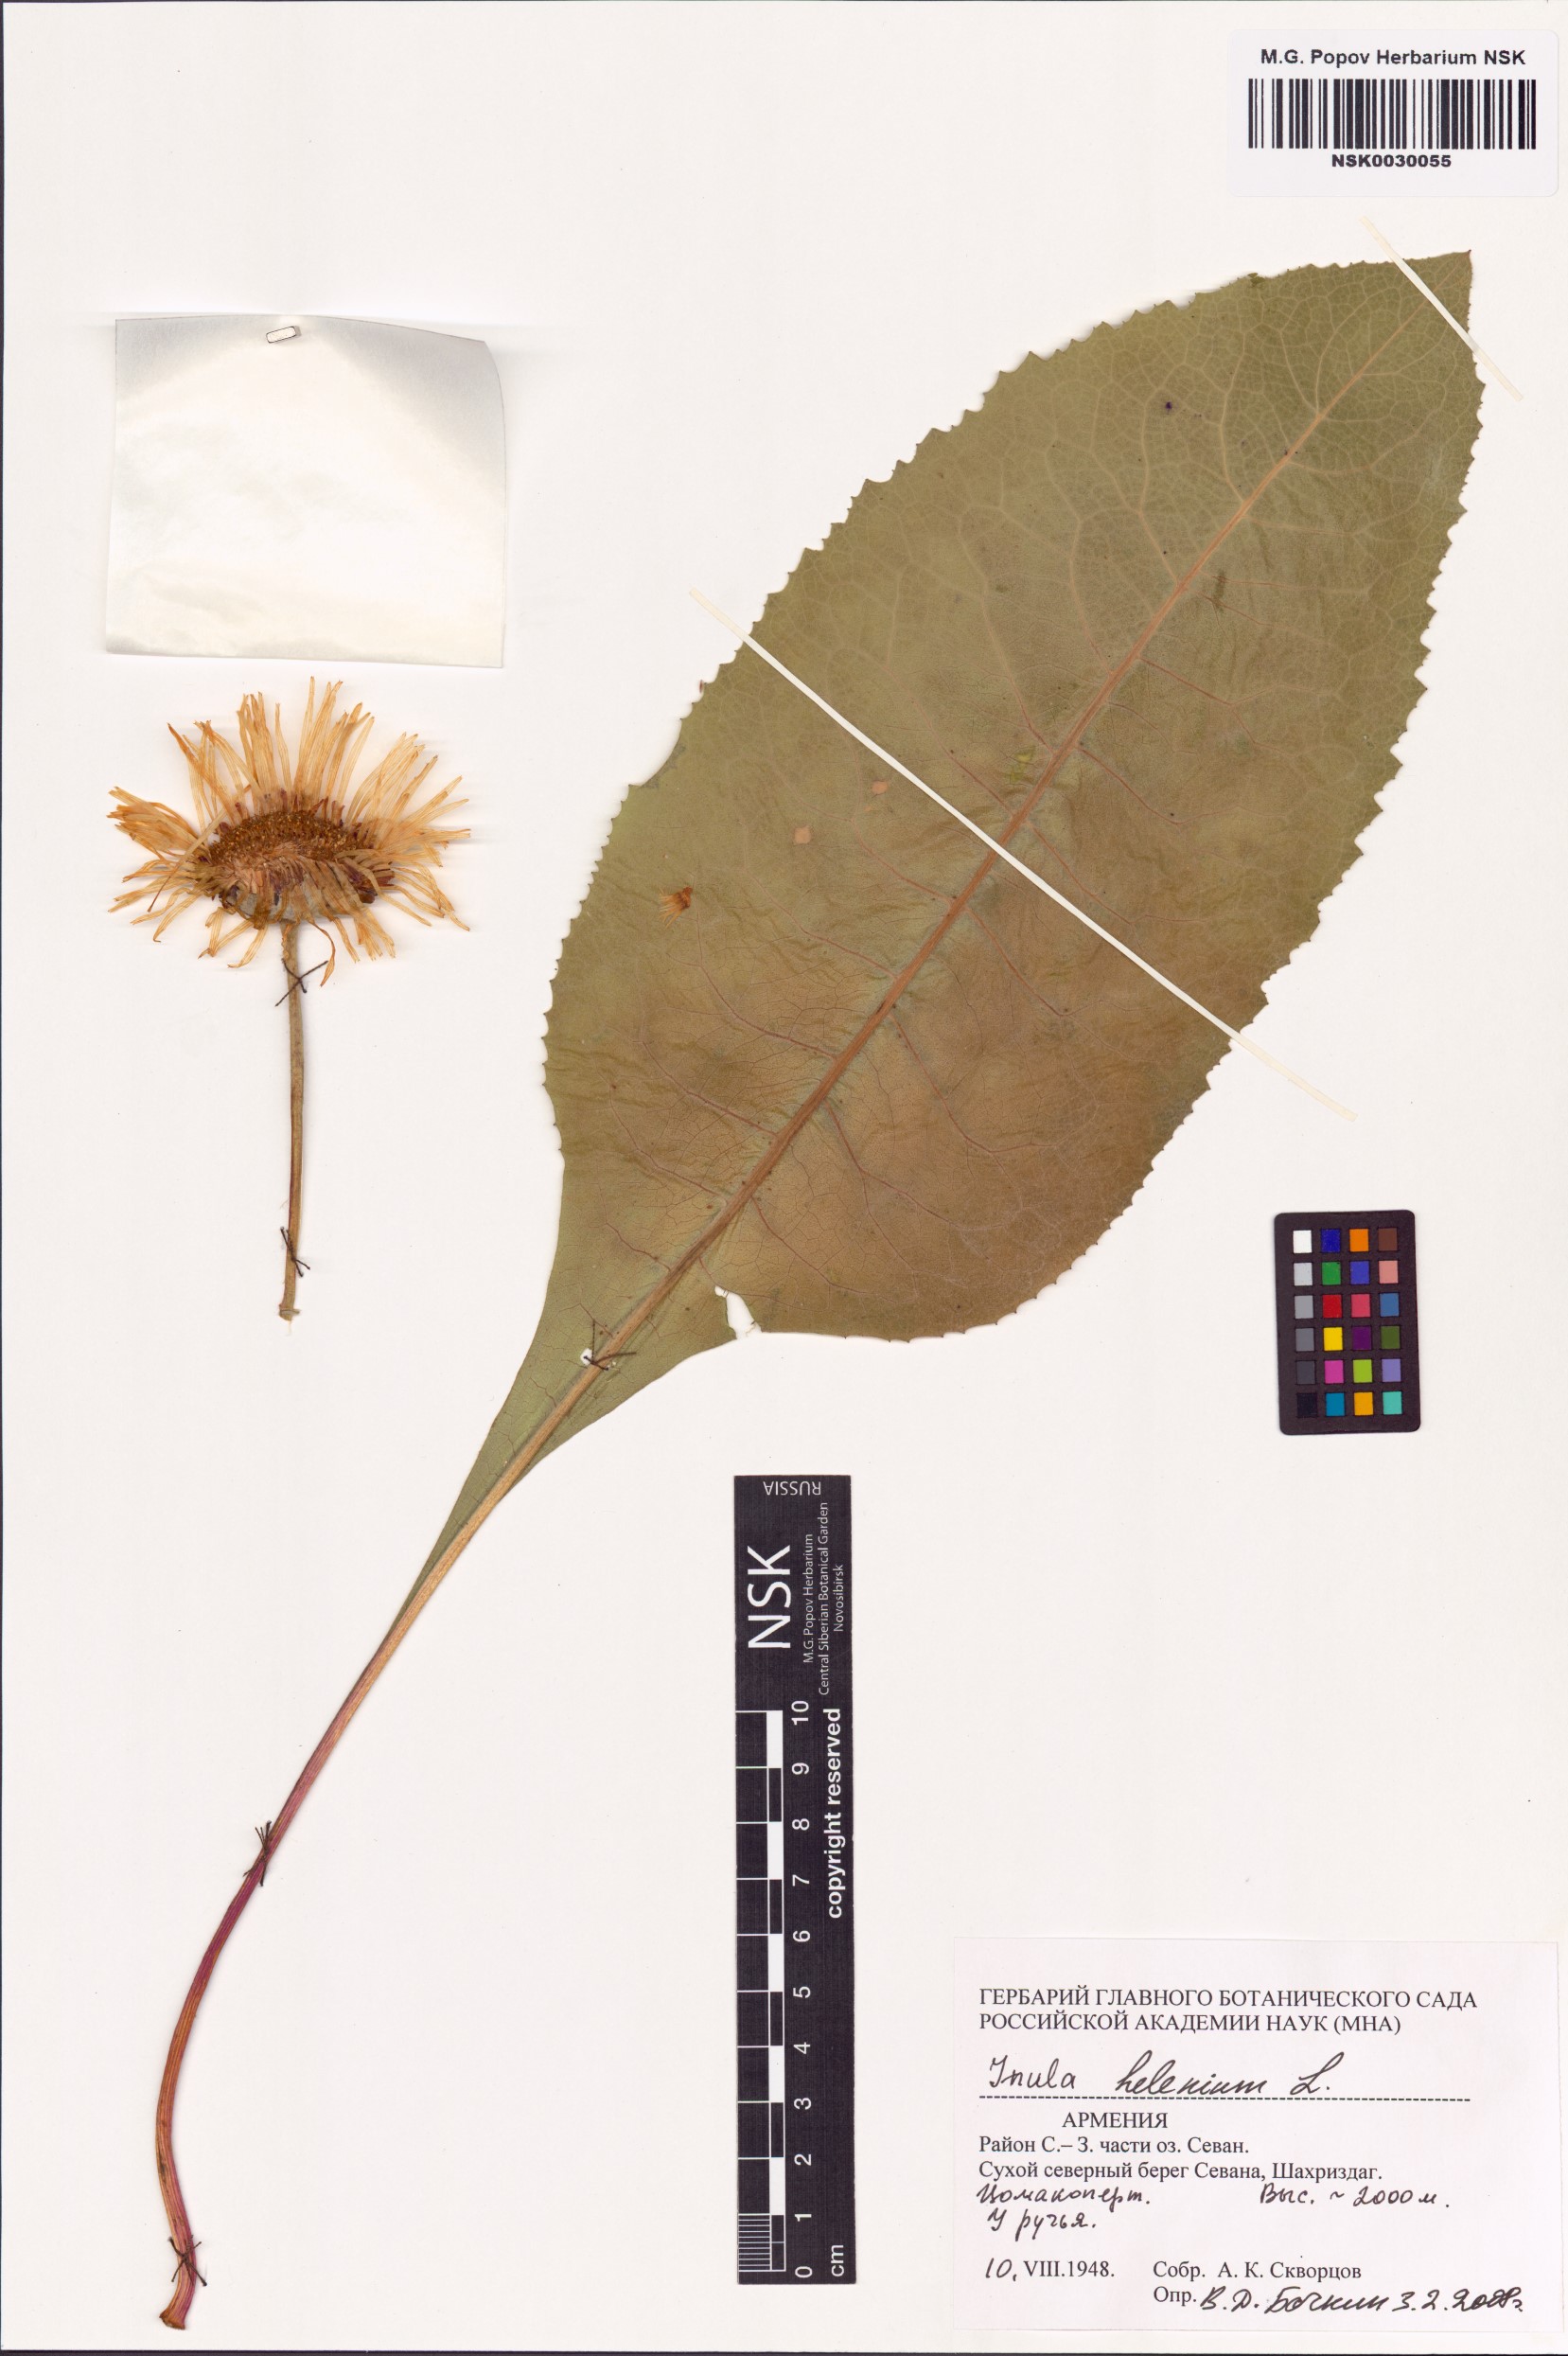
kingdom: Plantae
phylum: Tracheophyta
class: Magnoliopsida
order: Asterales
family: Asteraceae
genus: Inula
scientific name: Inula helenium
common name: Elecampane
